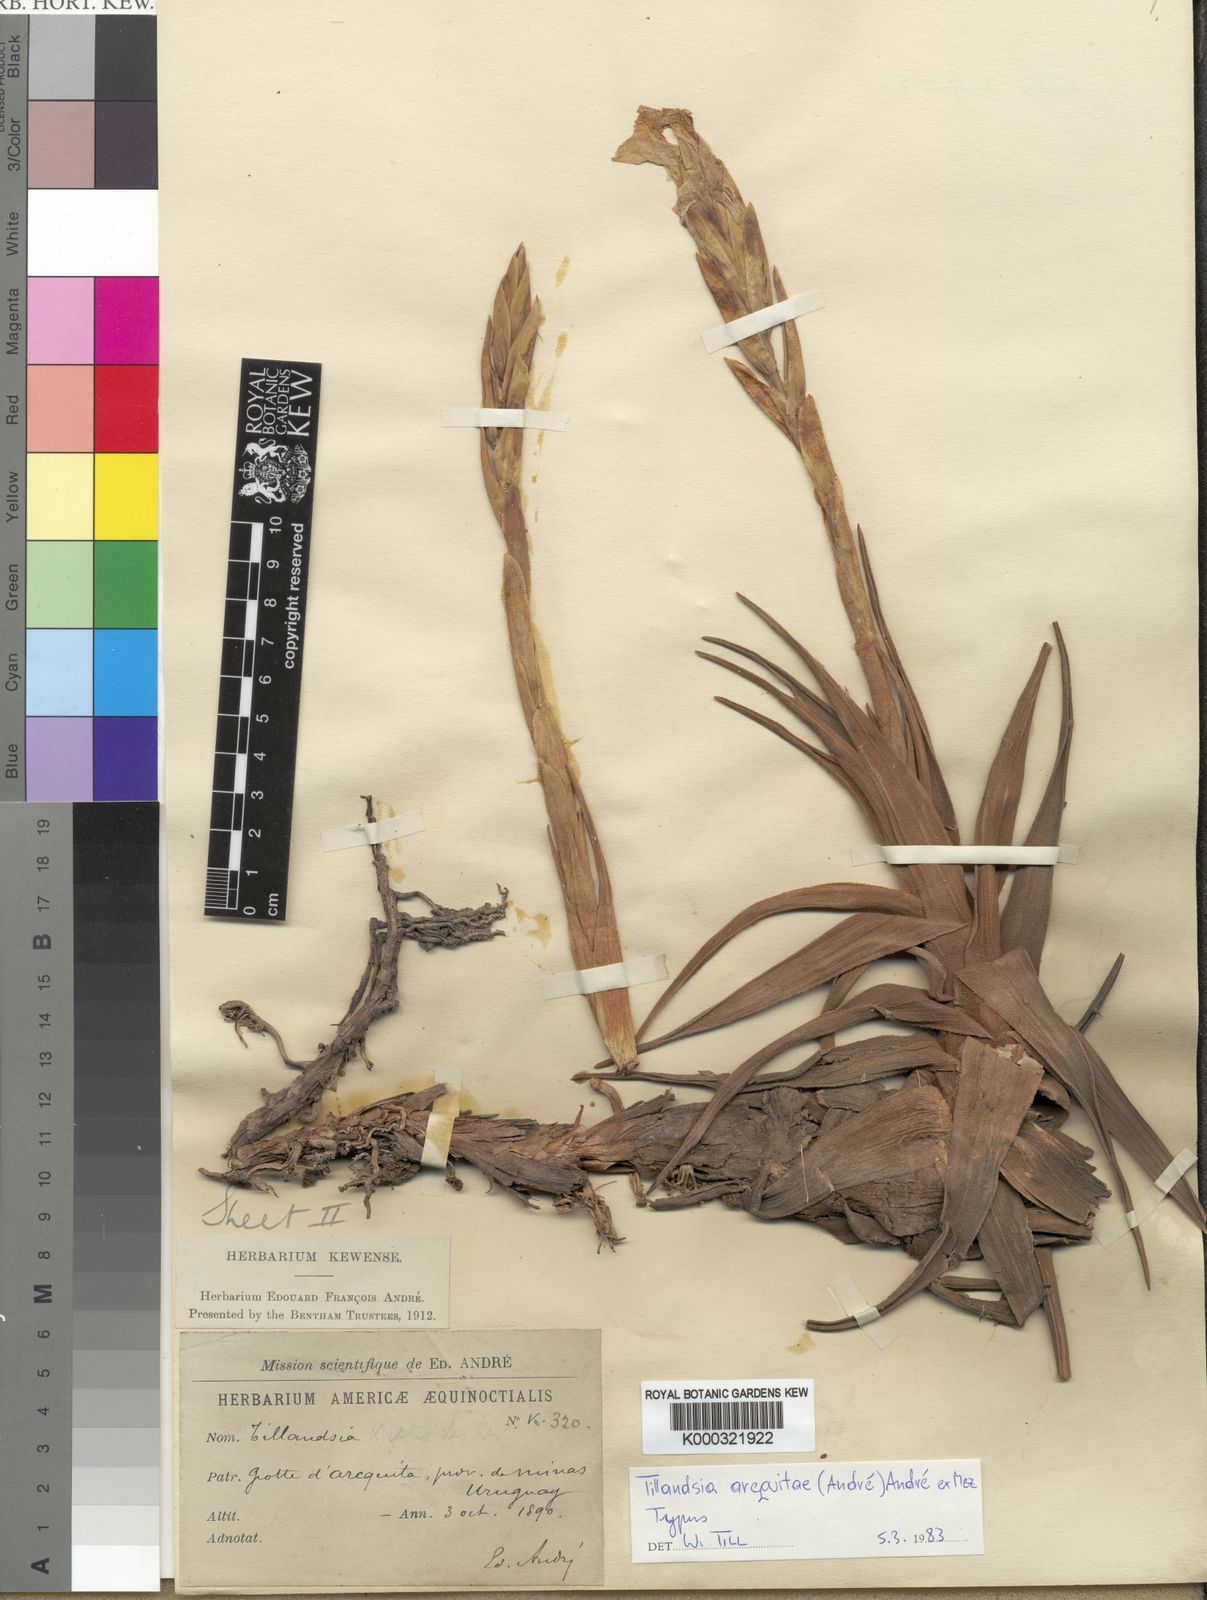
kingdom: Plantae
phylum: Tracheophyta
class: Liliopsida
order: Poales
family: Bromeliaceae
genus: Tillandsia
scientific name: Tillandsia arequitae
